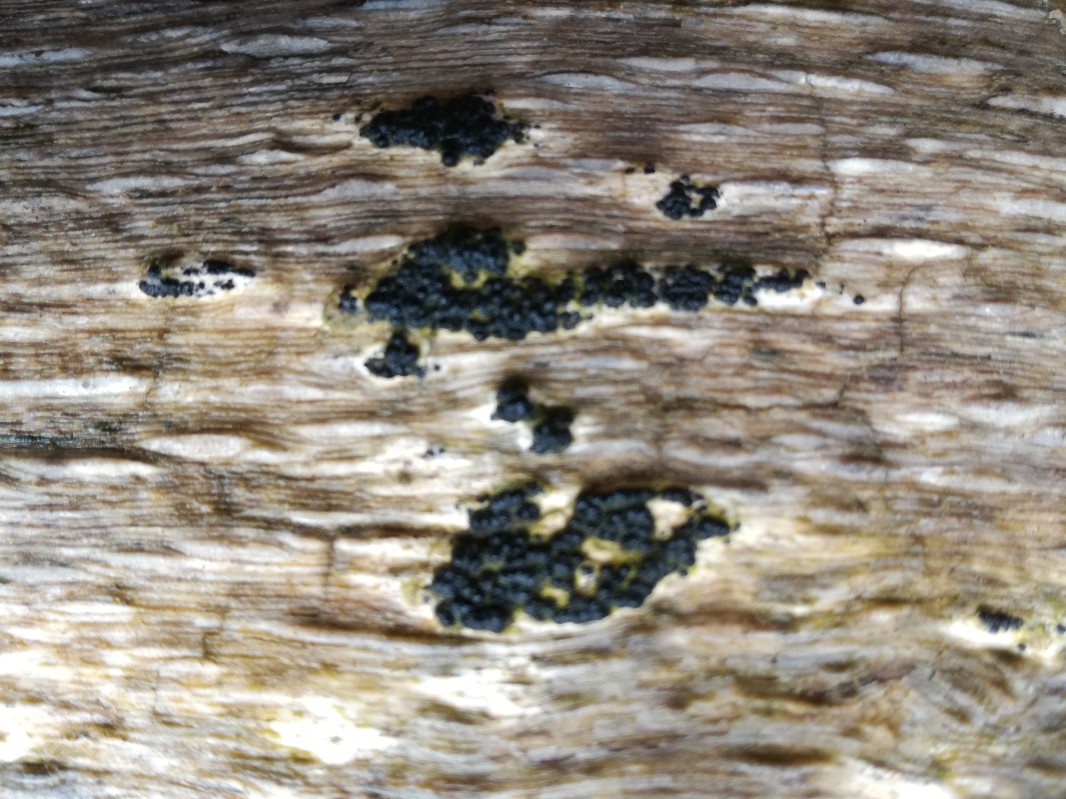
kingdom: Fungi
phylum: Ascomycota
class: Sordariomycetes
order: Xylariales
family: Xylariaceae
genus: Nemania
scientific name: Nemania maritima
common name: strand-kuldyne
